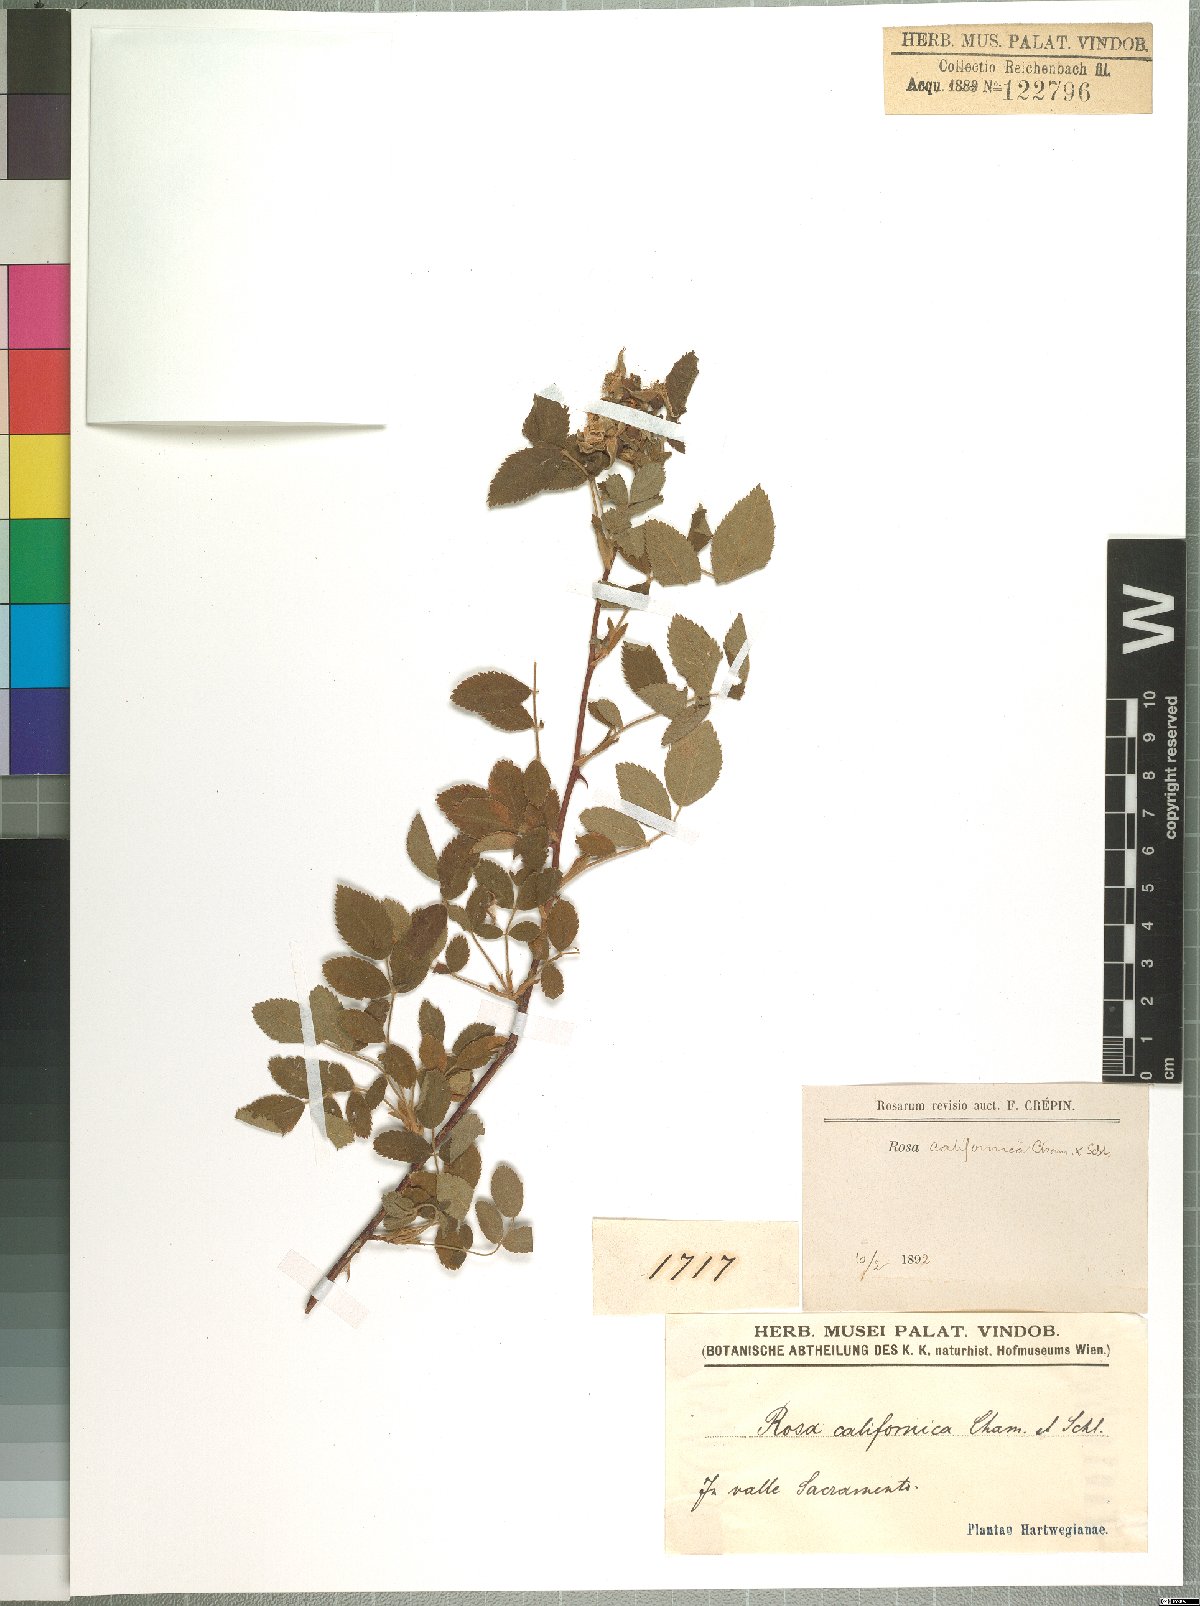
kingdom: Plantae
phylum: Tracheophyta
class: Magnoliopsida
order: Rosales
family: Rosaceae
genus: Rosa
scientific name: Rosa californica
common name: California rose
